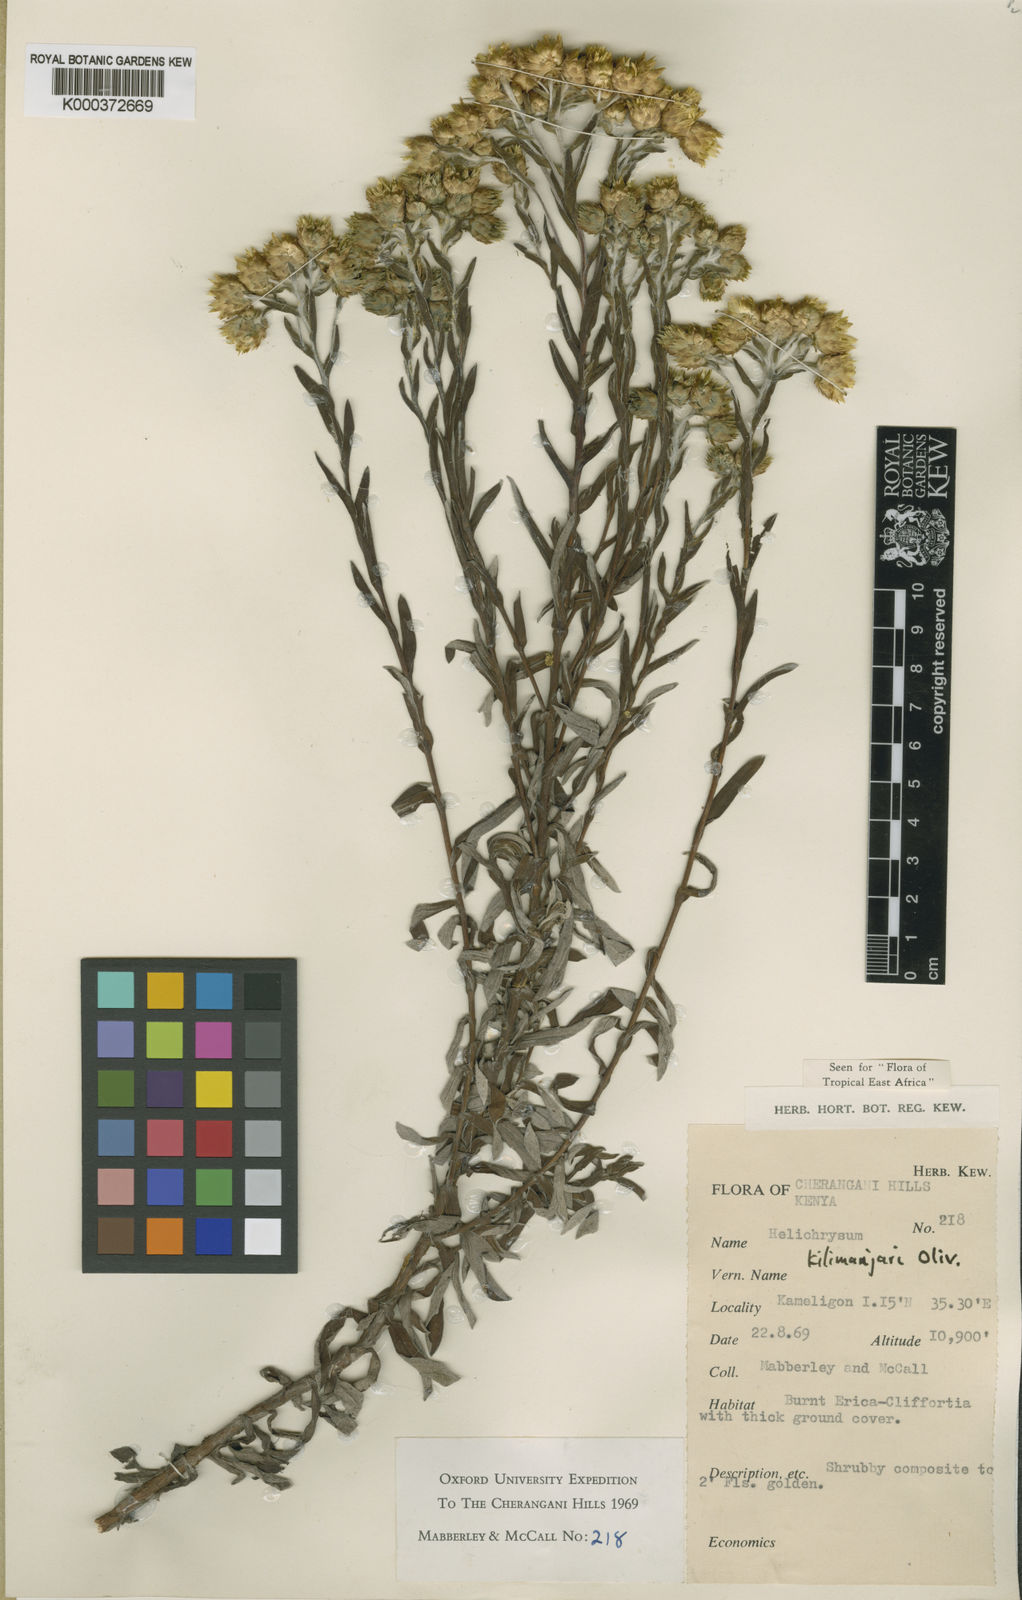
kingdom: Plantae
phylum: Tracheophyta
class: Magnoliopsida
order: Asterales
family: Asteraceae
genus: Helichrysum
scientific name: Helichrysum kilimanjari
